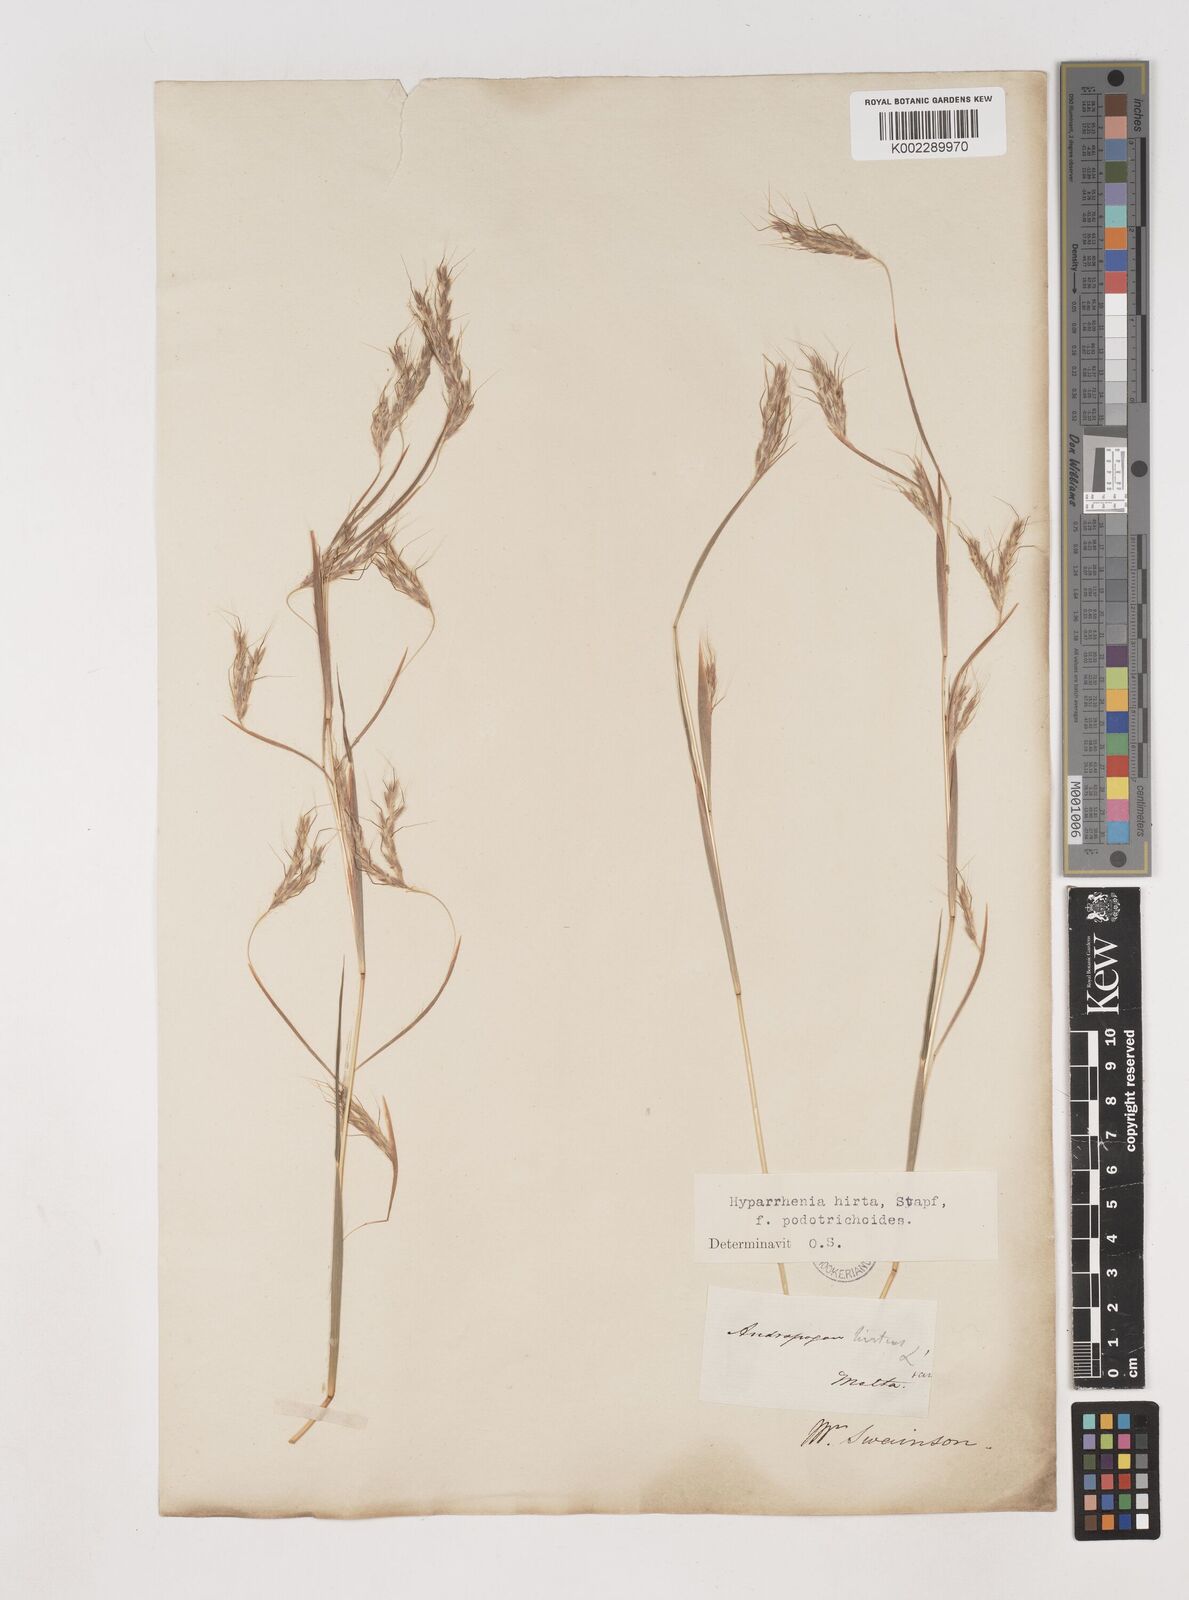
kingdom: Plantae
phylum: Tracheophyta
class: Liliopsida
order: Poales
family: Poaceae
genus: Hyparrhenia
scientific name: Hyparrhenia hirta
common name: Thatching grass
